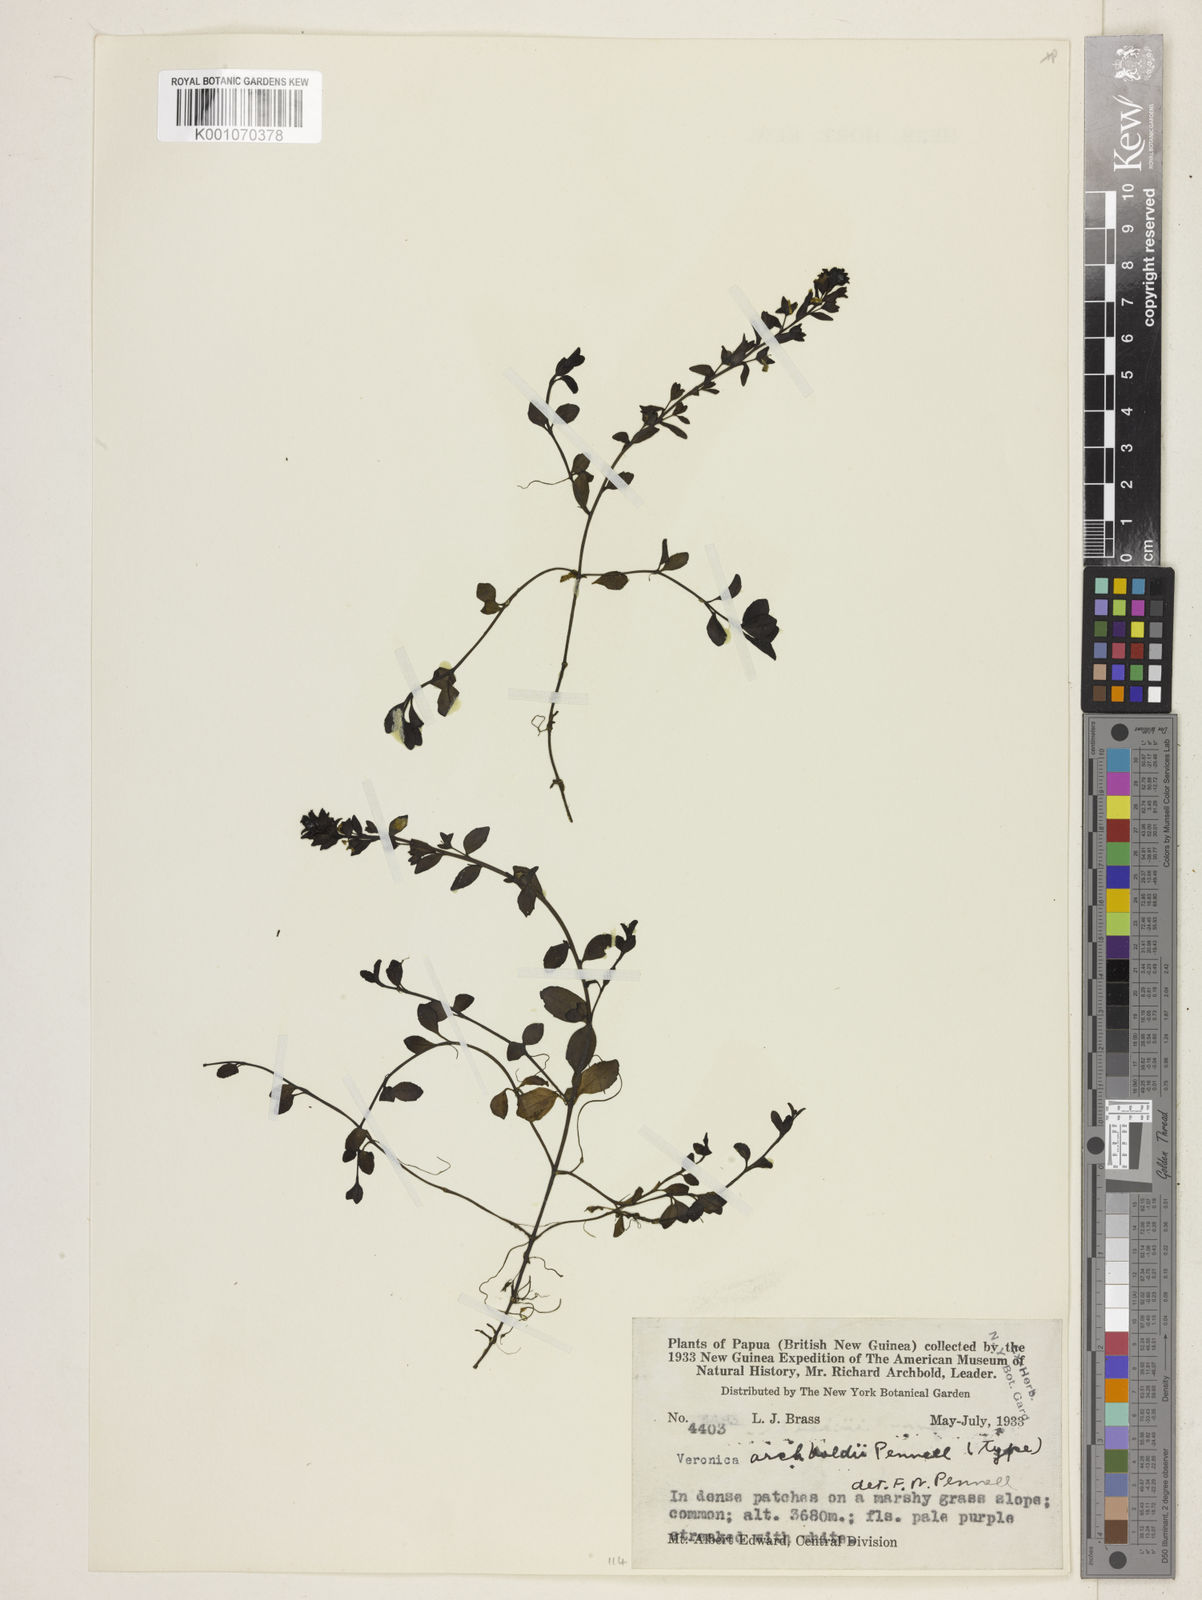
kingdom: Plantae
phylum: Tracheophyta
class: Magnoliopsida
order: Lamiales
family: Plantaginaceae
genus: Veronica
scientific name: Veronica archboldii
